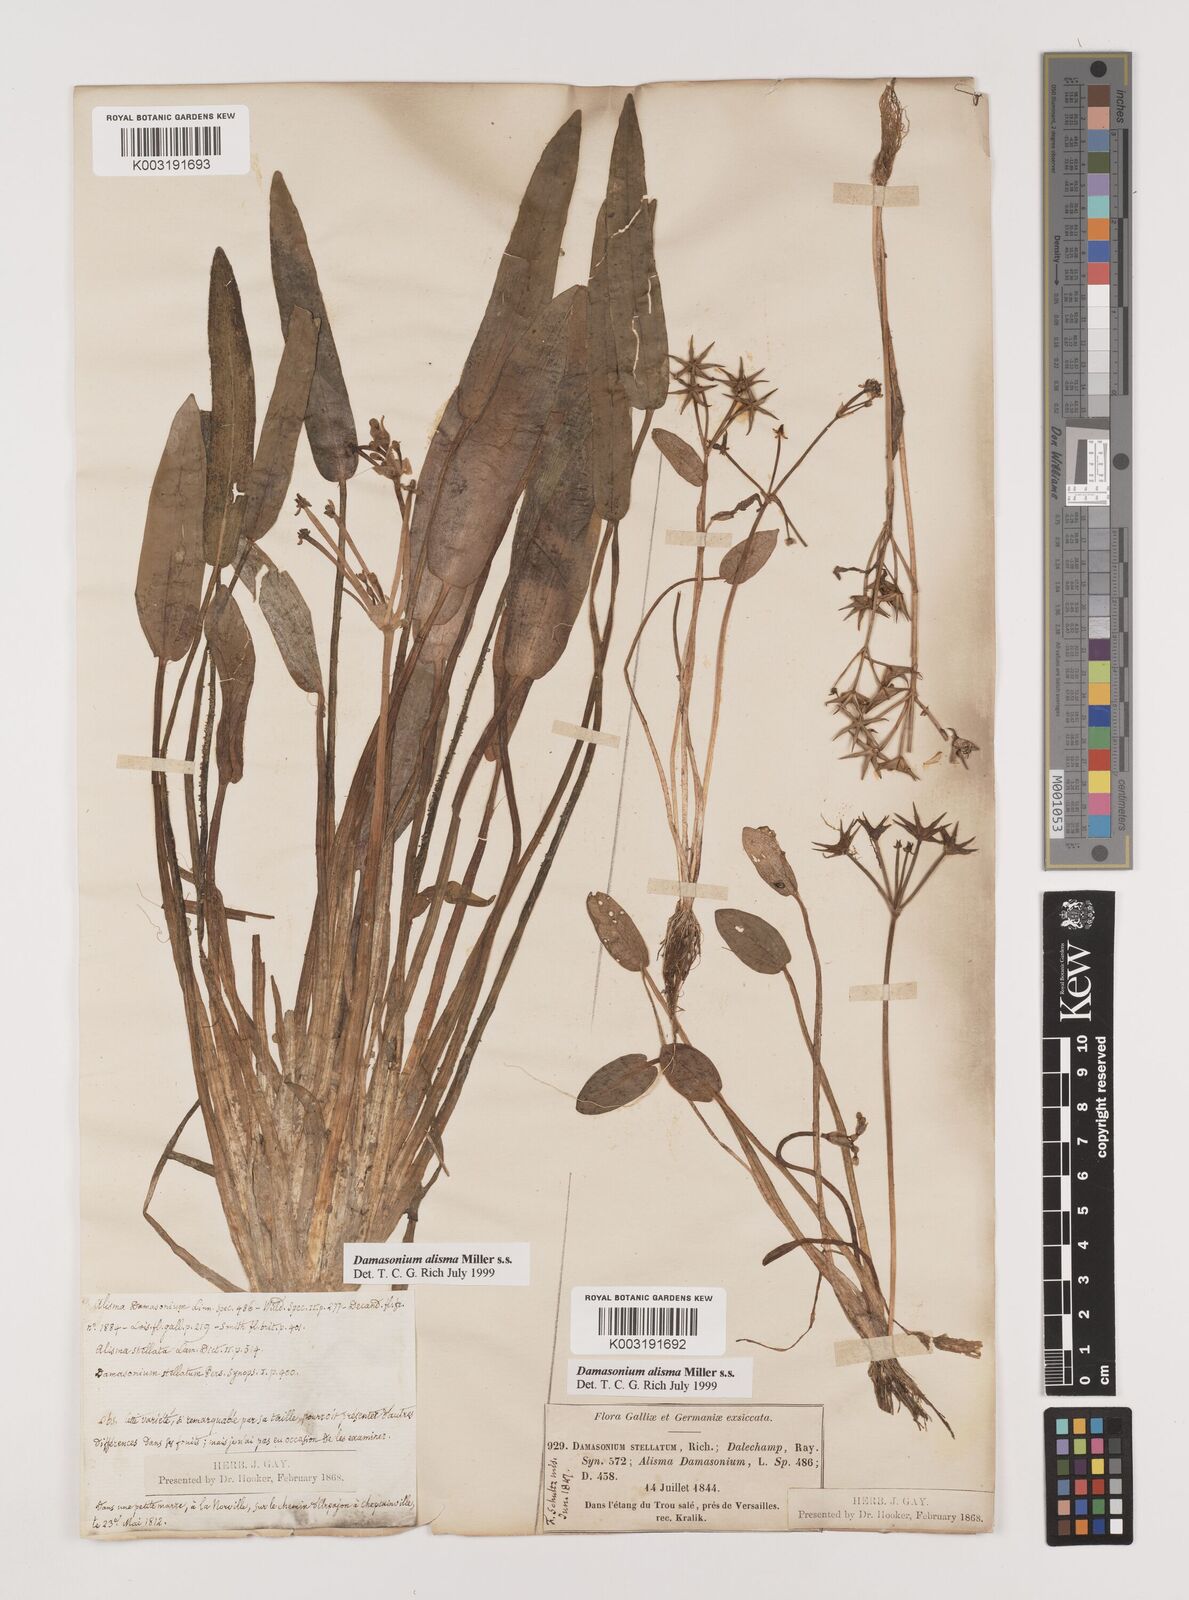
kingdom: Plantae
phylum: Tracheophyta
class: Liliopsida
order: Alismatales
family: Alismataceae
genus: Damasonium
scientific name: Damasonium alisma
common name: Starfruit
